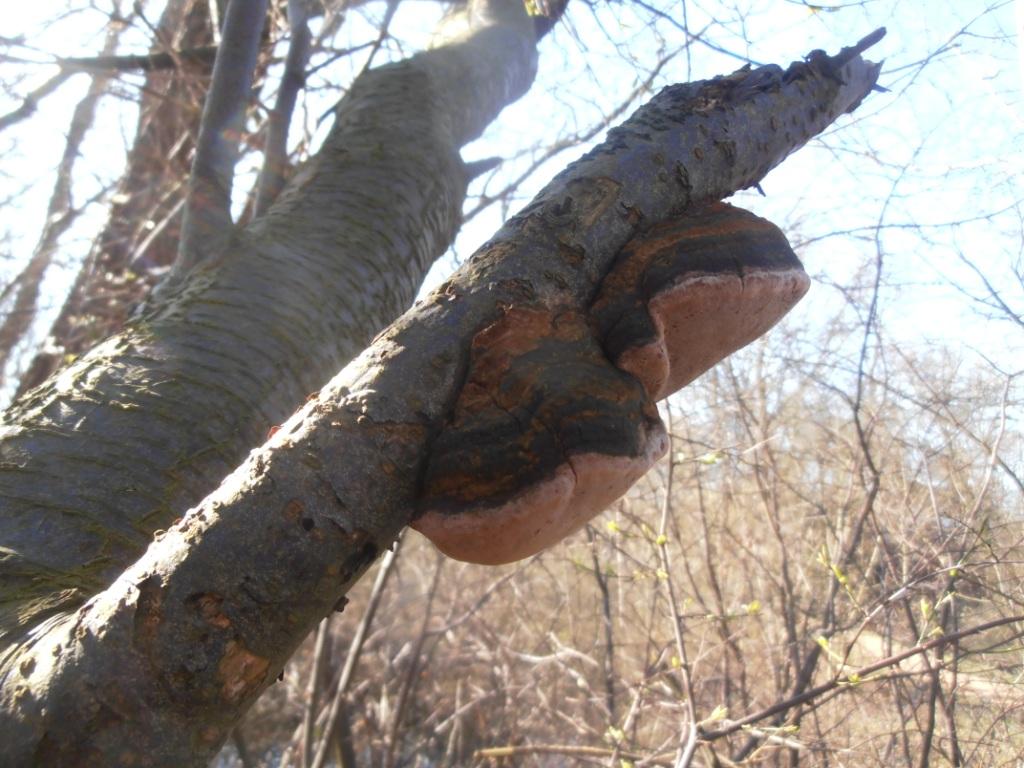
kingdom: Fungi
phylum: Basidiomycota
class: Agaricomycetes
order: Hymenochaetales
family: Hymenochaetaceae
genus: Phellinus
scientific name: Phellinus pomaceus
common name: blomme-ildporesvamp
